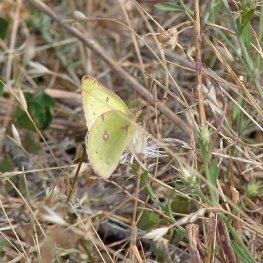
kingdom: Animalia
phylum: Arthropoda
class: Insecta
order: Lepidoptera
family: Pieridae
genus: Colias
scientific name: Colias philodice
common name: Clouded Sulphur
